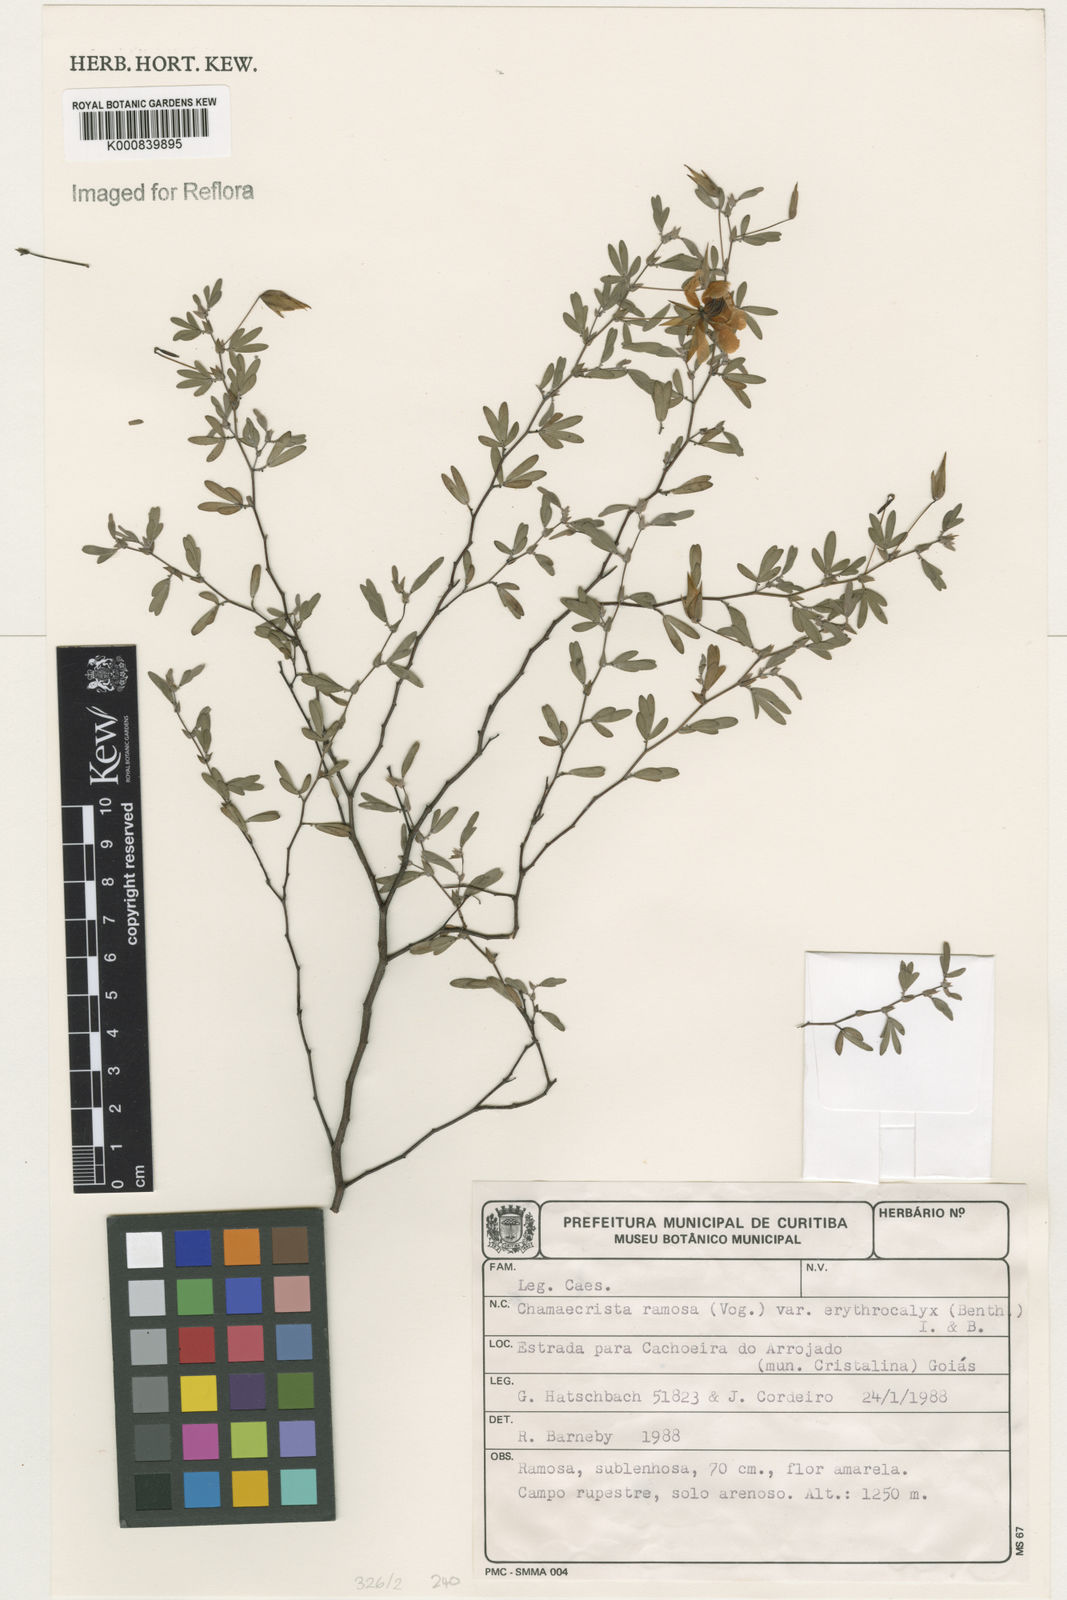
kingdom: Plantae
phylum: Tracheophyta
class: Magnoliopsida
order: Fabales
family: Fabaceae
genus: Chamaecrista
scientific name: Chamaecrista ramosa
